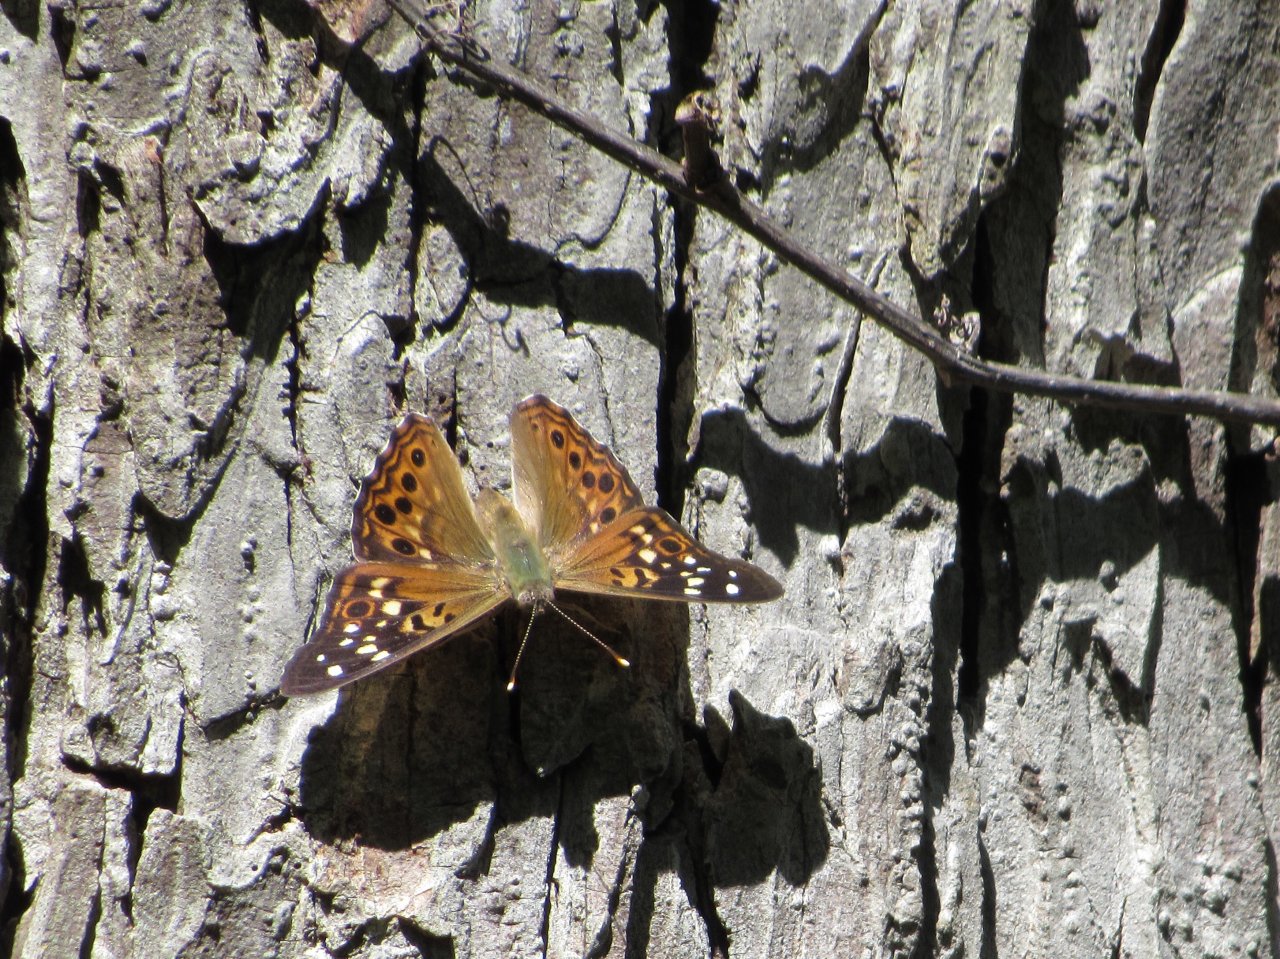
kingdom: Animalia
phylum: Arthropoda
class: Insecta
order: Lepidoptera
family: Nymphalidae
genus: Asterocampa
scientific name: Asterocampa celtis
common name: Hackberry Emperor
